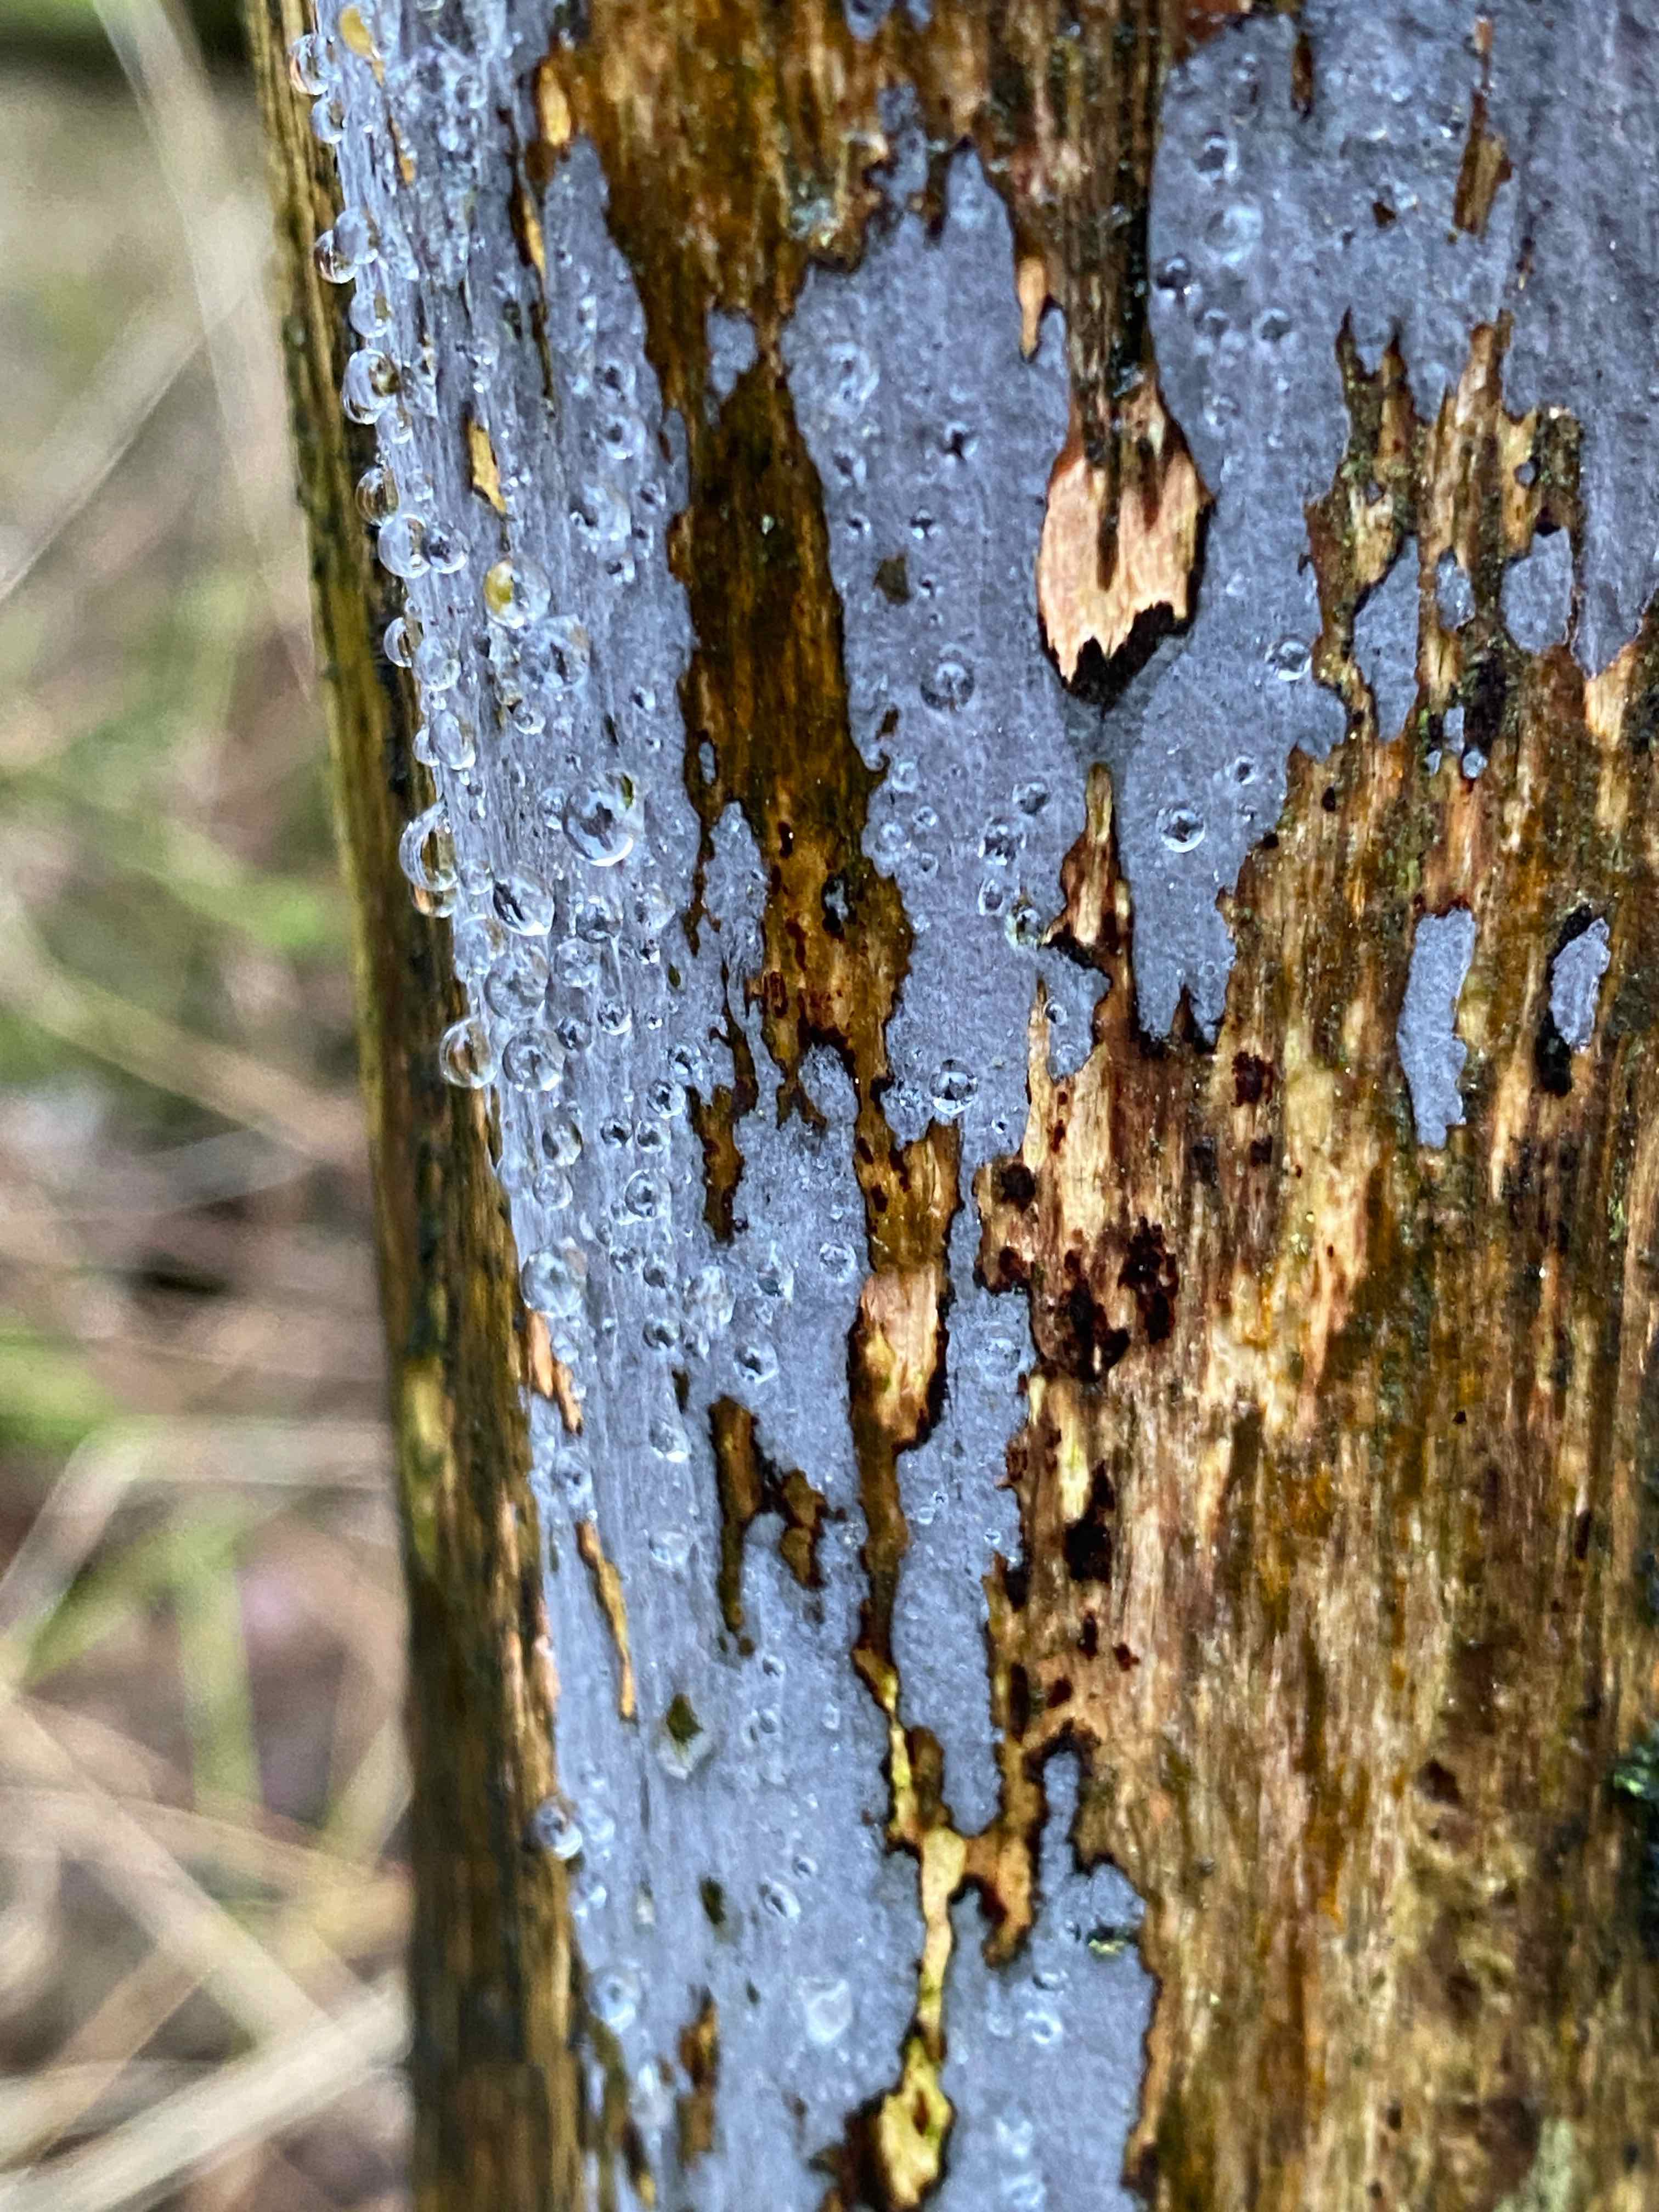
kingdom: Fungi
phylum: Basidiomycota
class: Agaricomycetes
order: Russulales
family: Peniophoraceae
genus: Peniophora
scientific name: Peniophora
